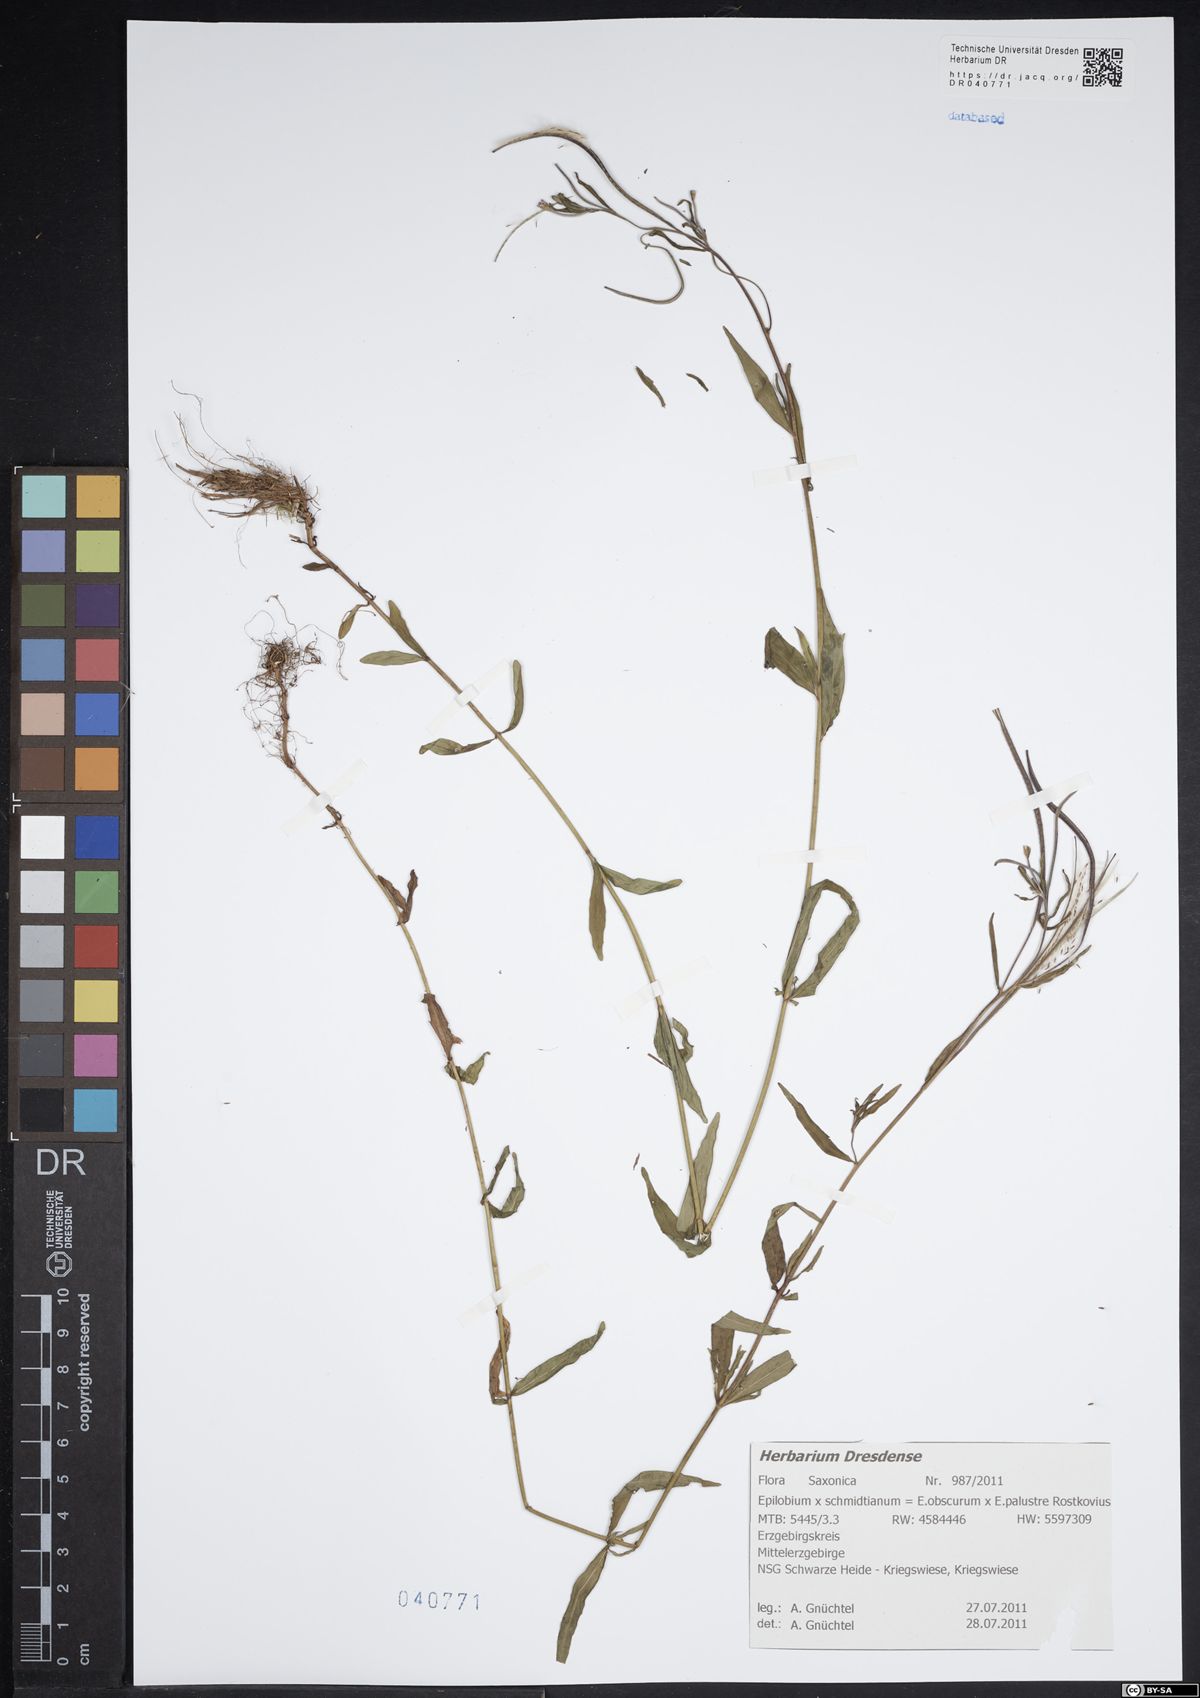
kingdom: Plantae
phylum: Tracheophyta
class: Magnoliopsida
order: Myrtales
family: Onagraceae
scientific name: Onagraceae
